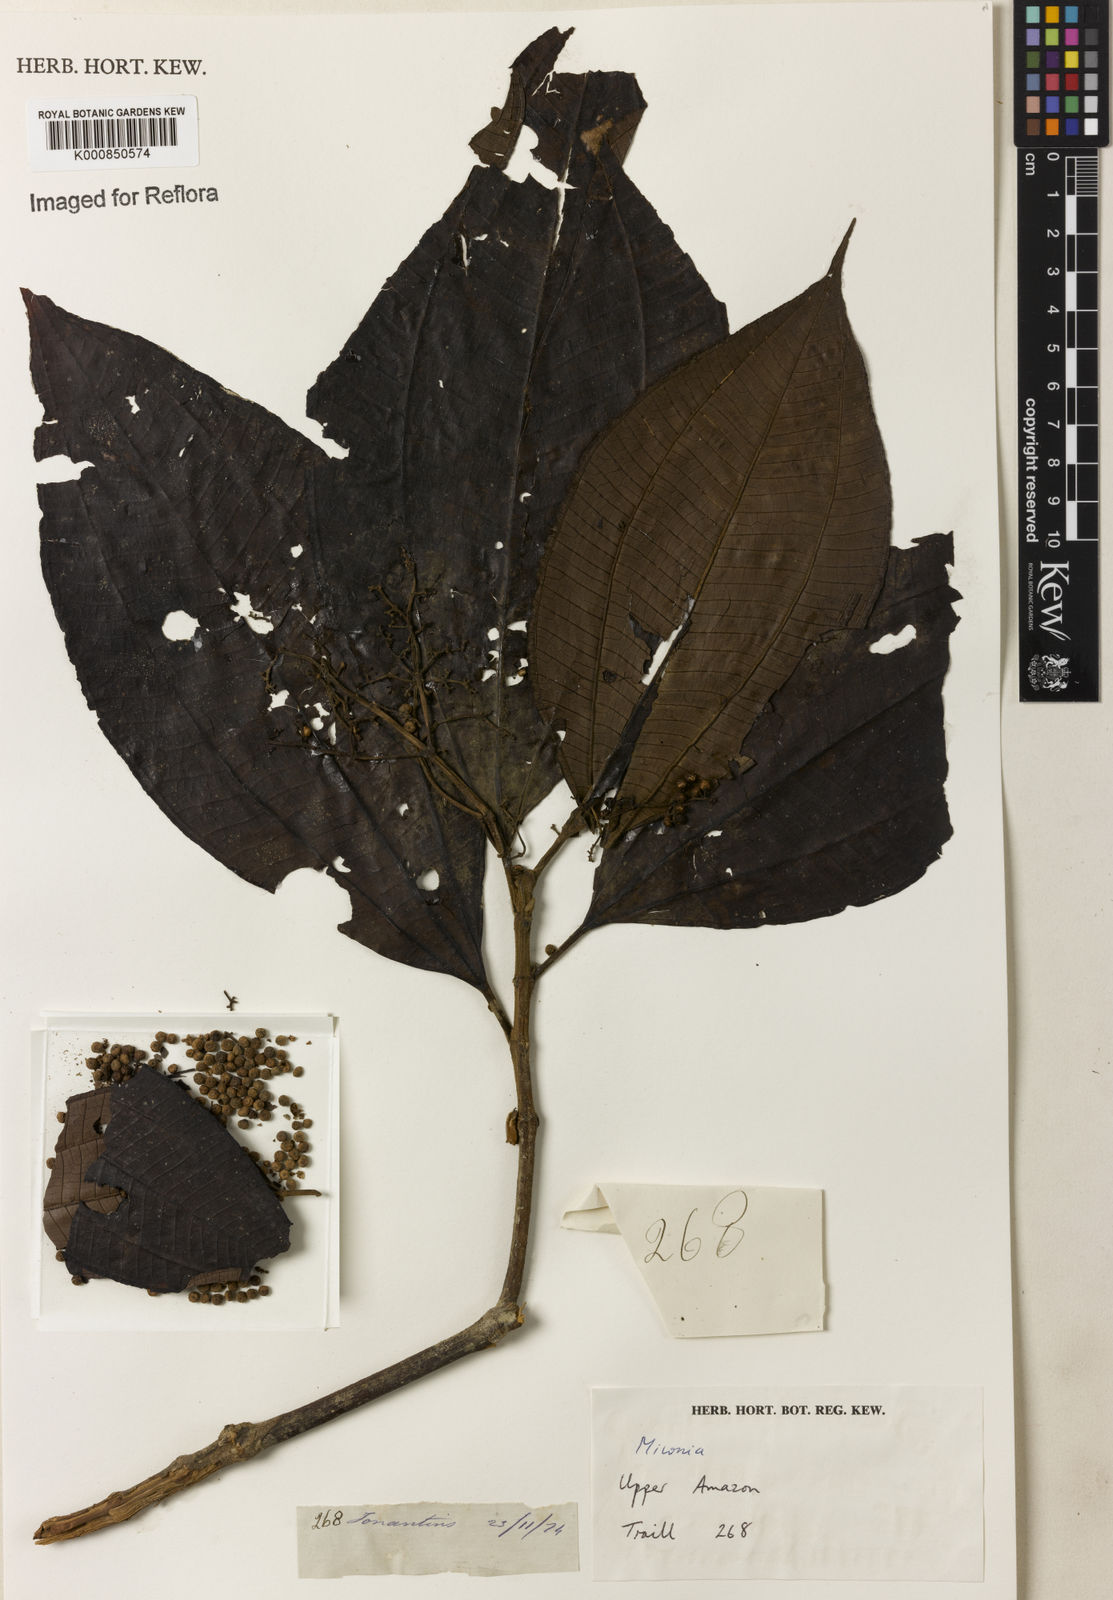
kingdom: Plantae
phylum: Tracheophyta
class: Magnoliopsida
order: Myrtales
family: Melastomataceae
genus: Miconia
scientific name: Miconia
